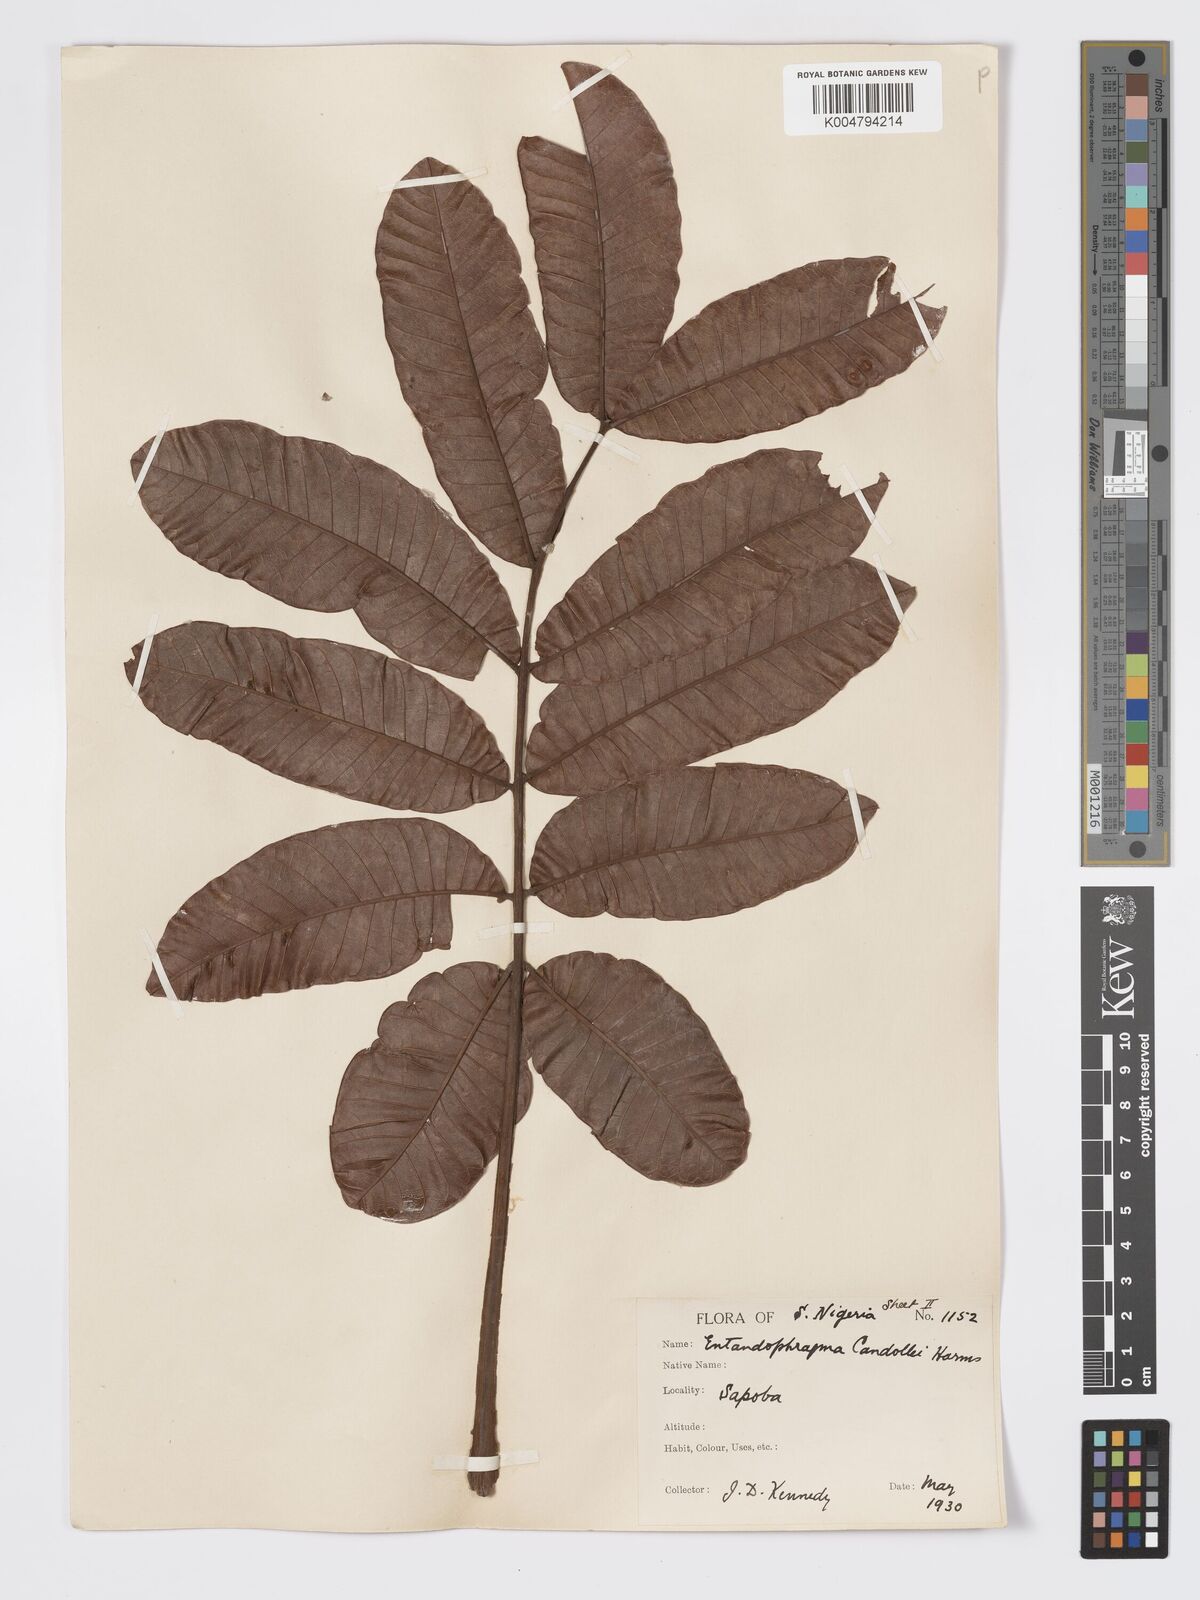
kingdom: Plantae
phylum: Tracheophyta
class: Magnoliopsida
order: Sapindales
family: Meliaceae
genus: Entandrophragma
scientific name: Entandrophragma candollei
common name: Cedar kokoti
